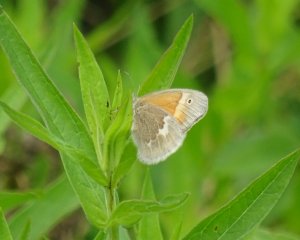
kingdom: Animalia
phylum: Arthropoda
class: Insecta
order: Lepidoptera
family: Nymphalidae
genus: Coenonympha
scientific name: Coenonympha tullia
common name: Large Heath
